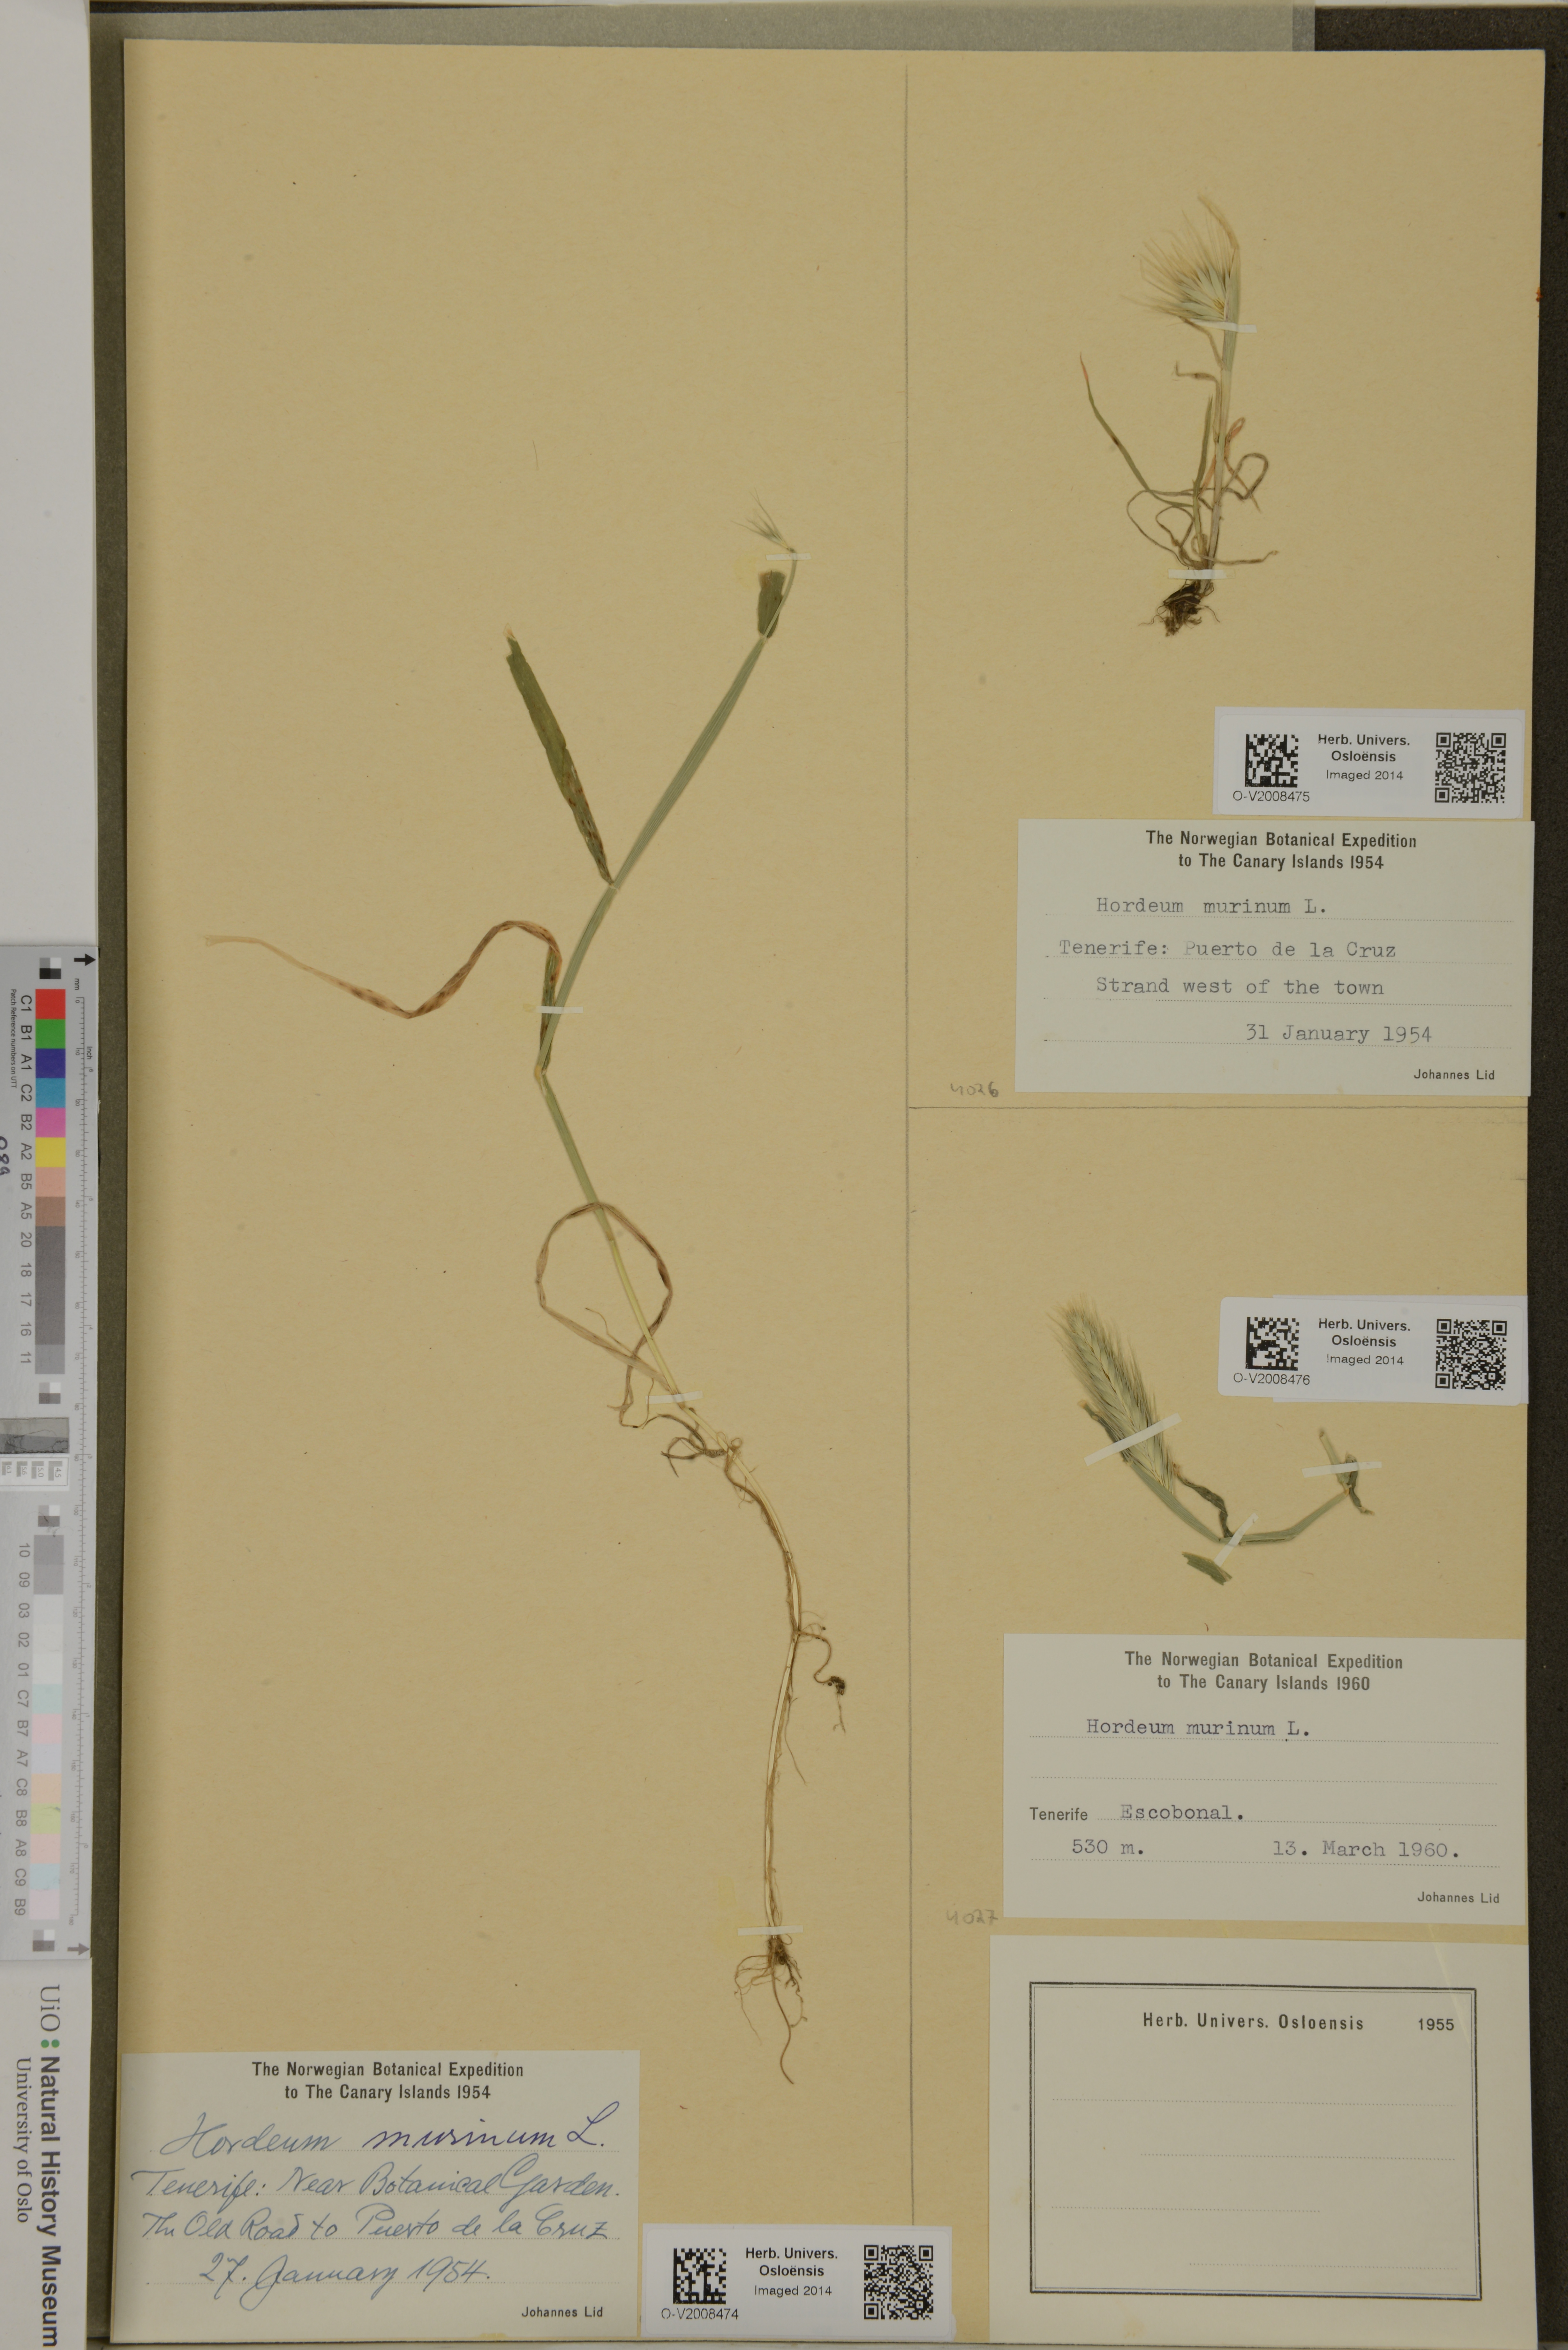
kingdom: Plantae
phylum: Tracheophyta
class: Liliopsida
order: Poales
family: Poaceae
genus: Hordeum
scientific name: Hordeum murinum
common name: Wall barley
